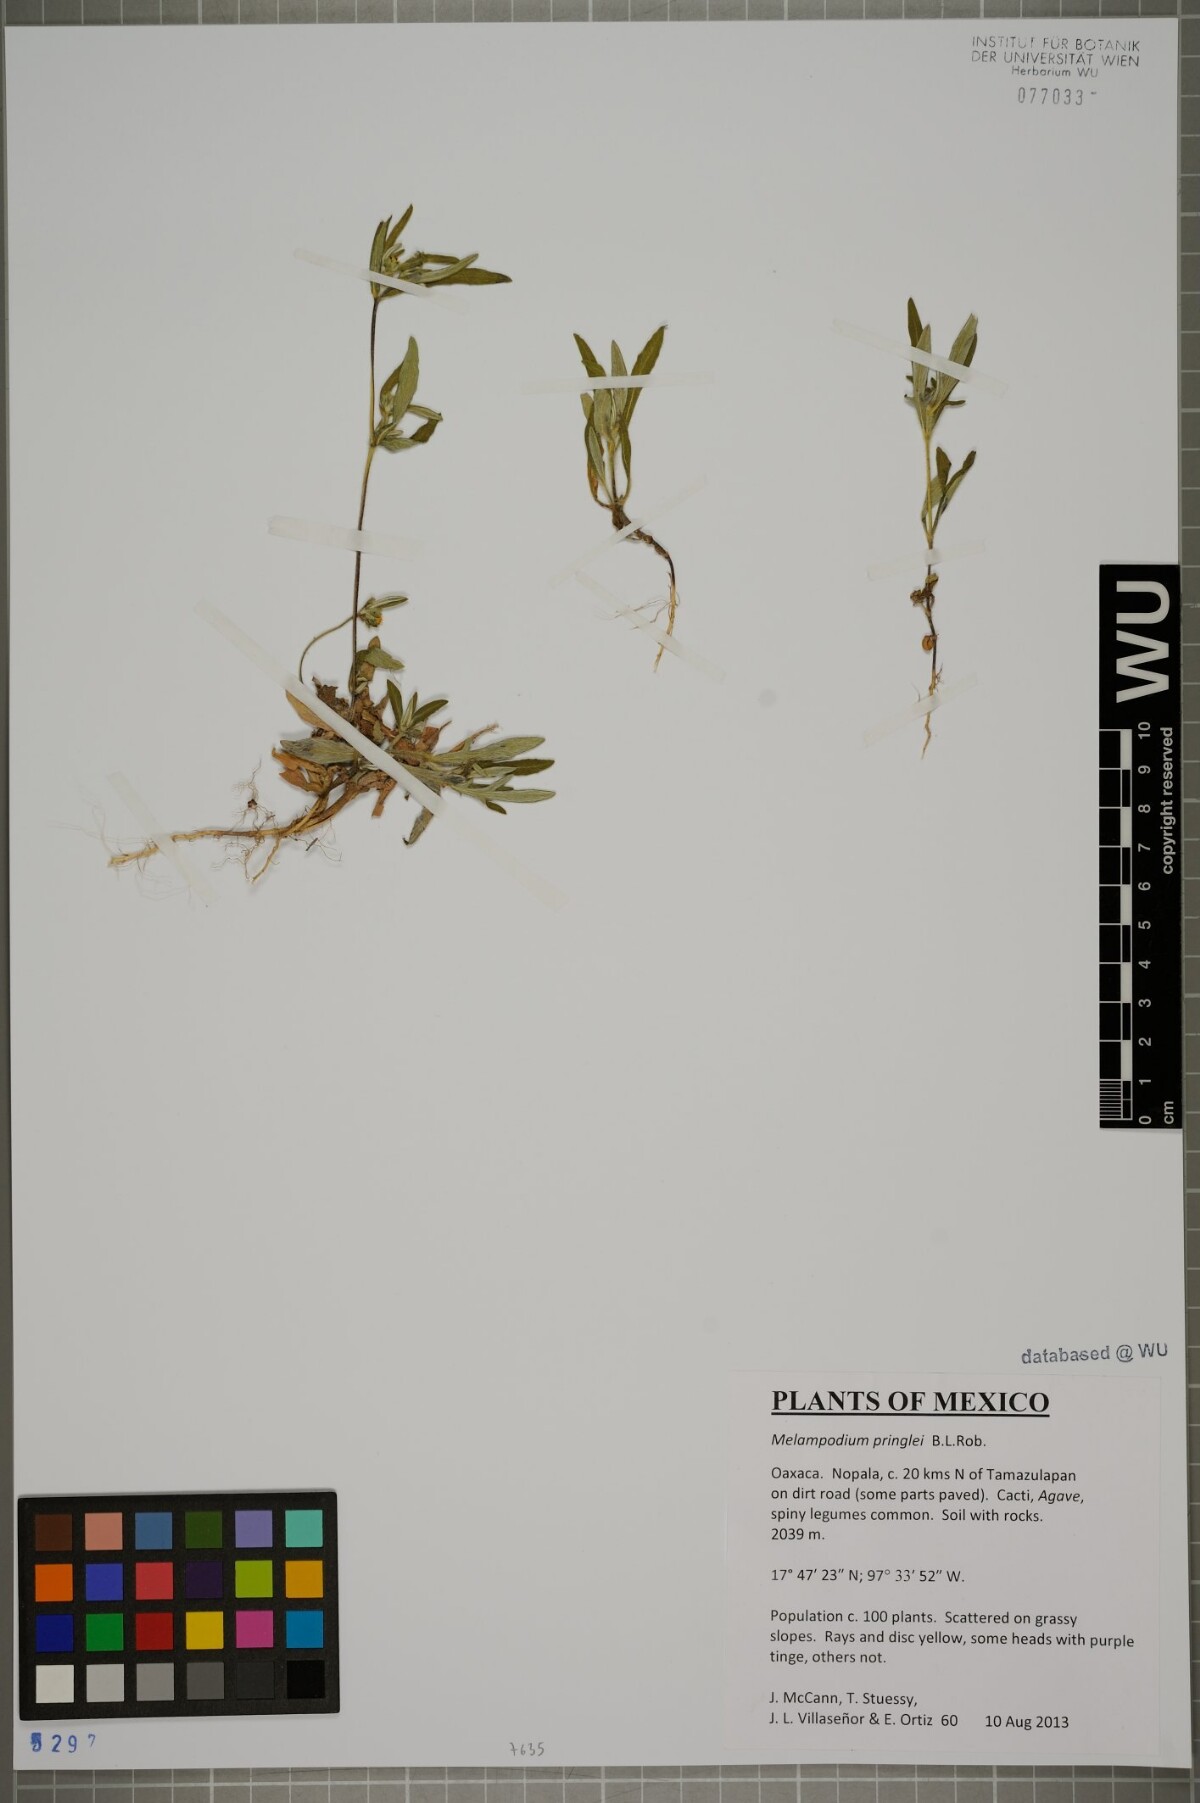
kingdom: Plantae
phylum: Tracheophyta
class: Magnoliopsida
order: Asterales
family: Asteraceae
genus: Melampodium
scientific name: Melampodium pringlei
